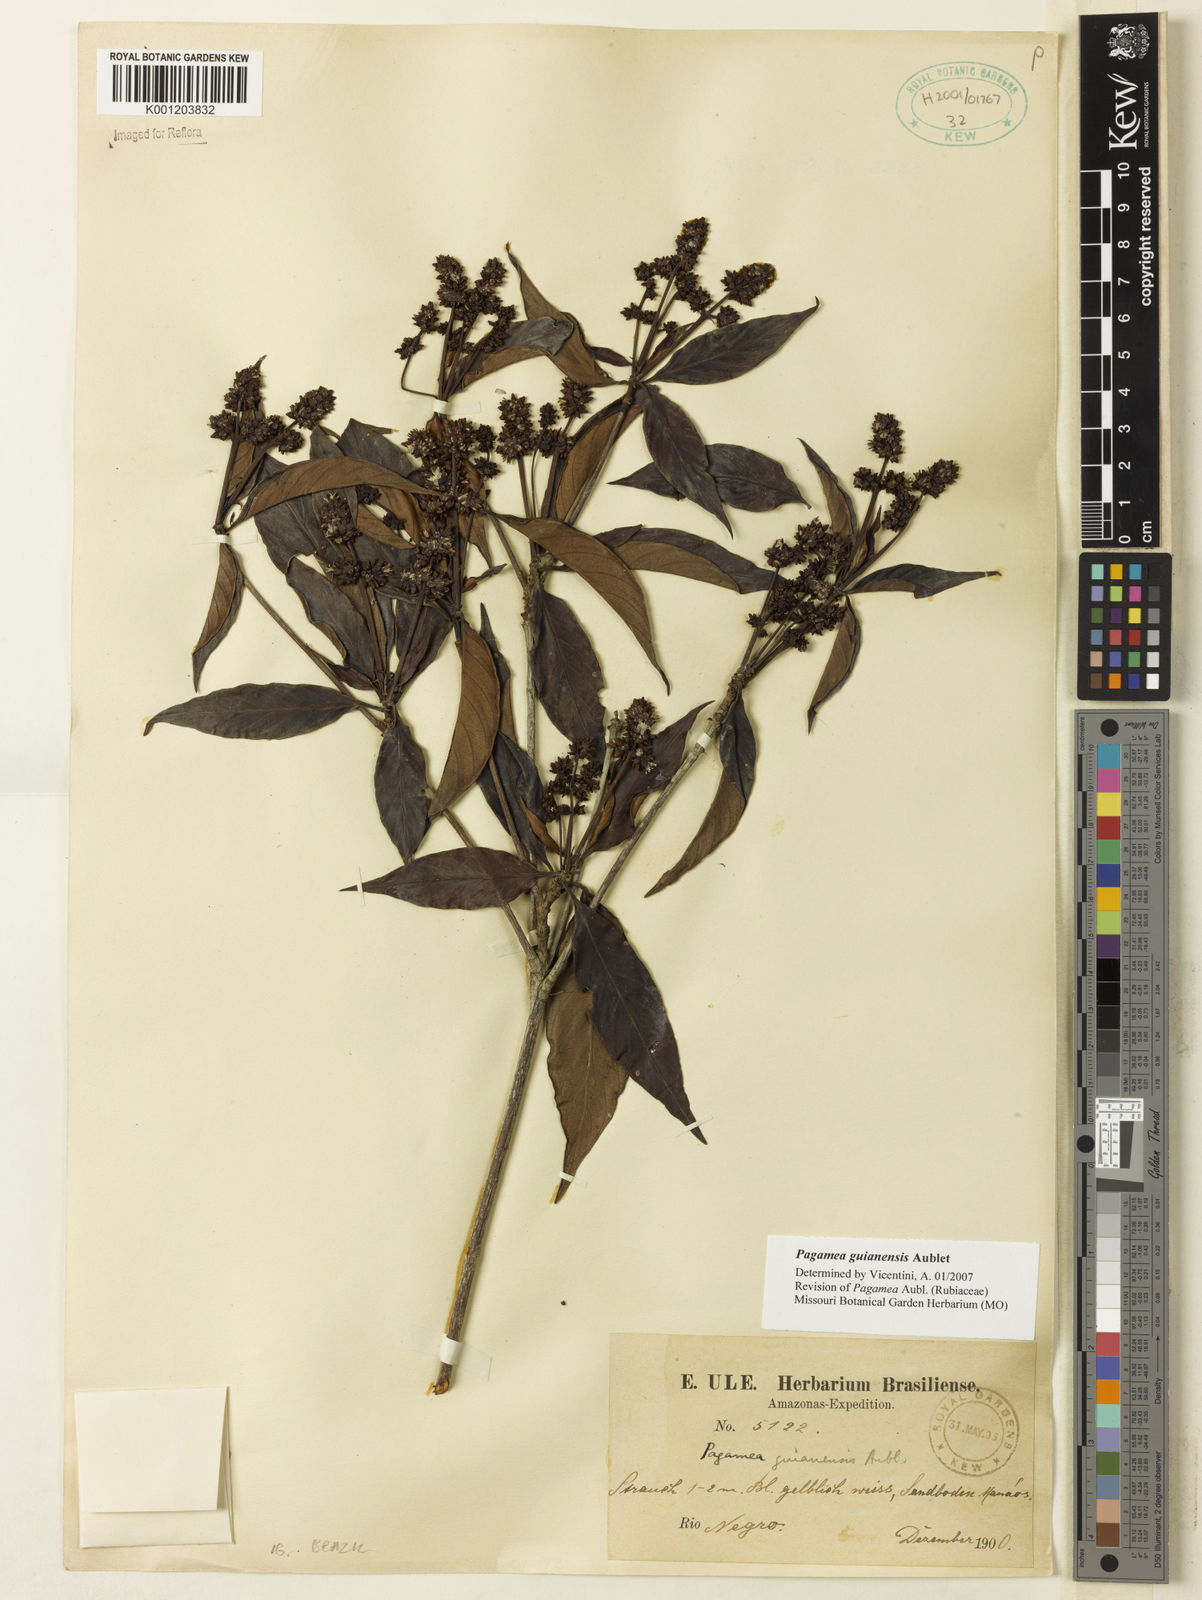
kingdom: Plantae
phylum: Tracheophyta
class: Magnoliopsida
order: Gentianales
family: Rubiaceae
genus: Pagamea
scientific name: Pagamea guianensis
